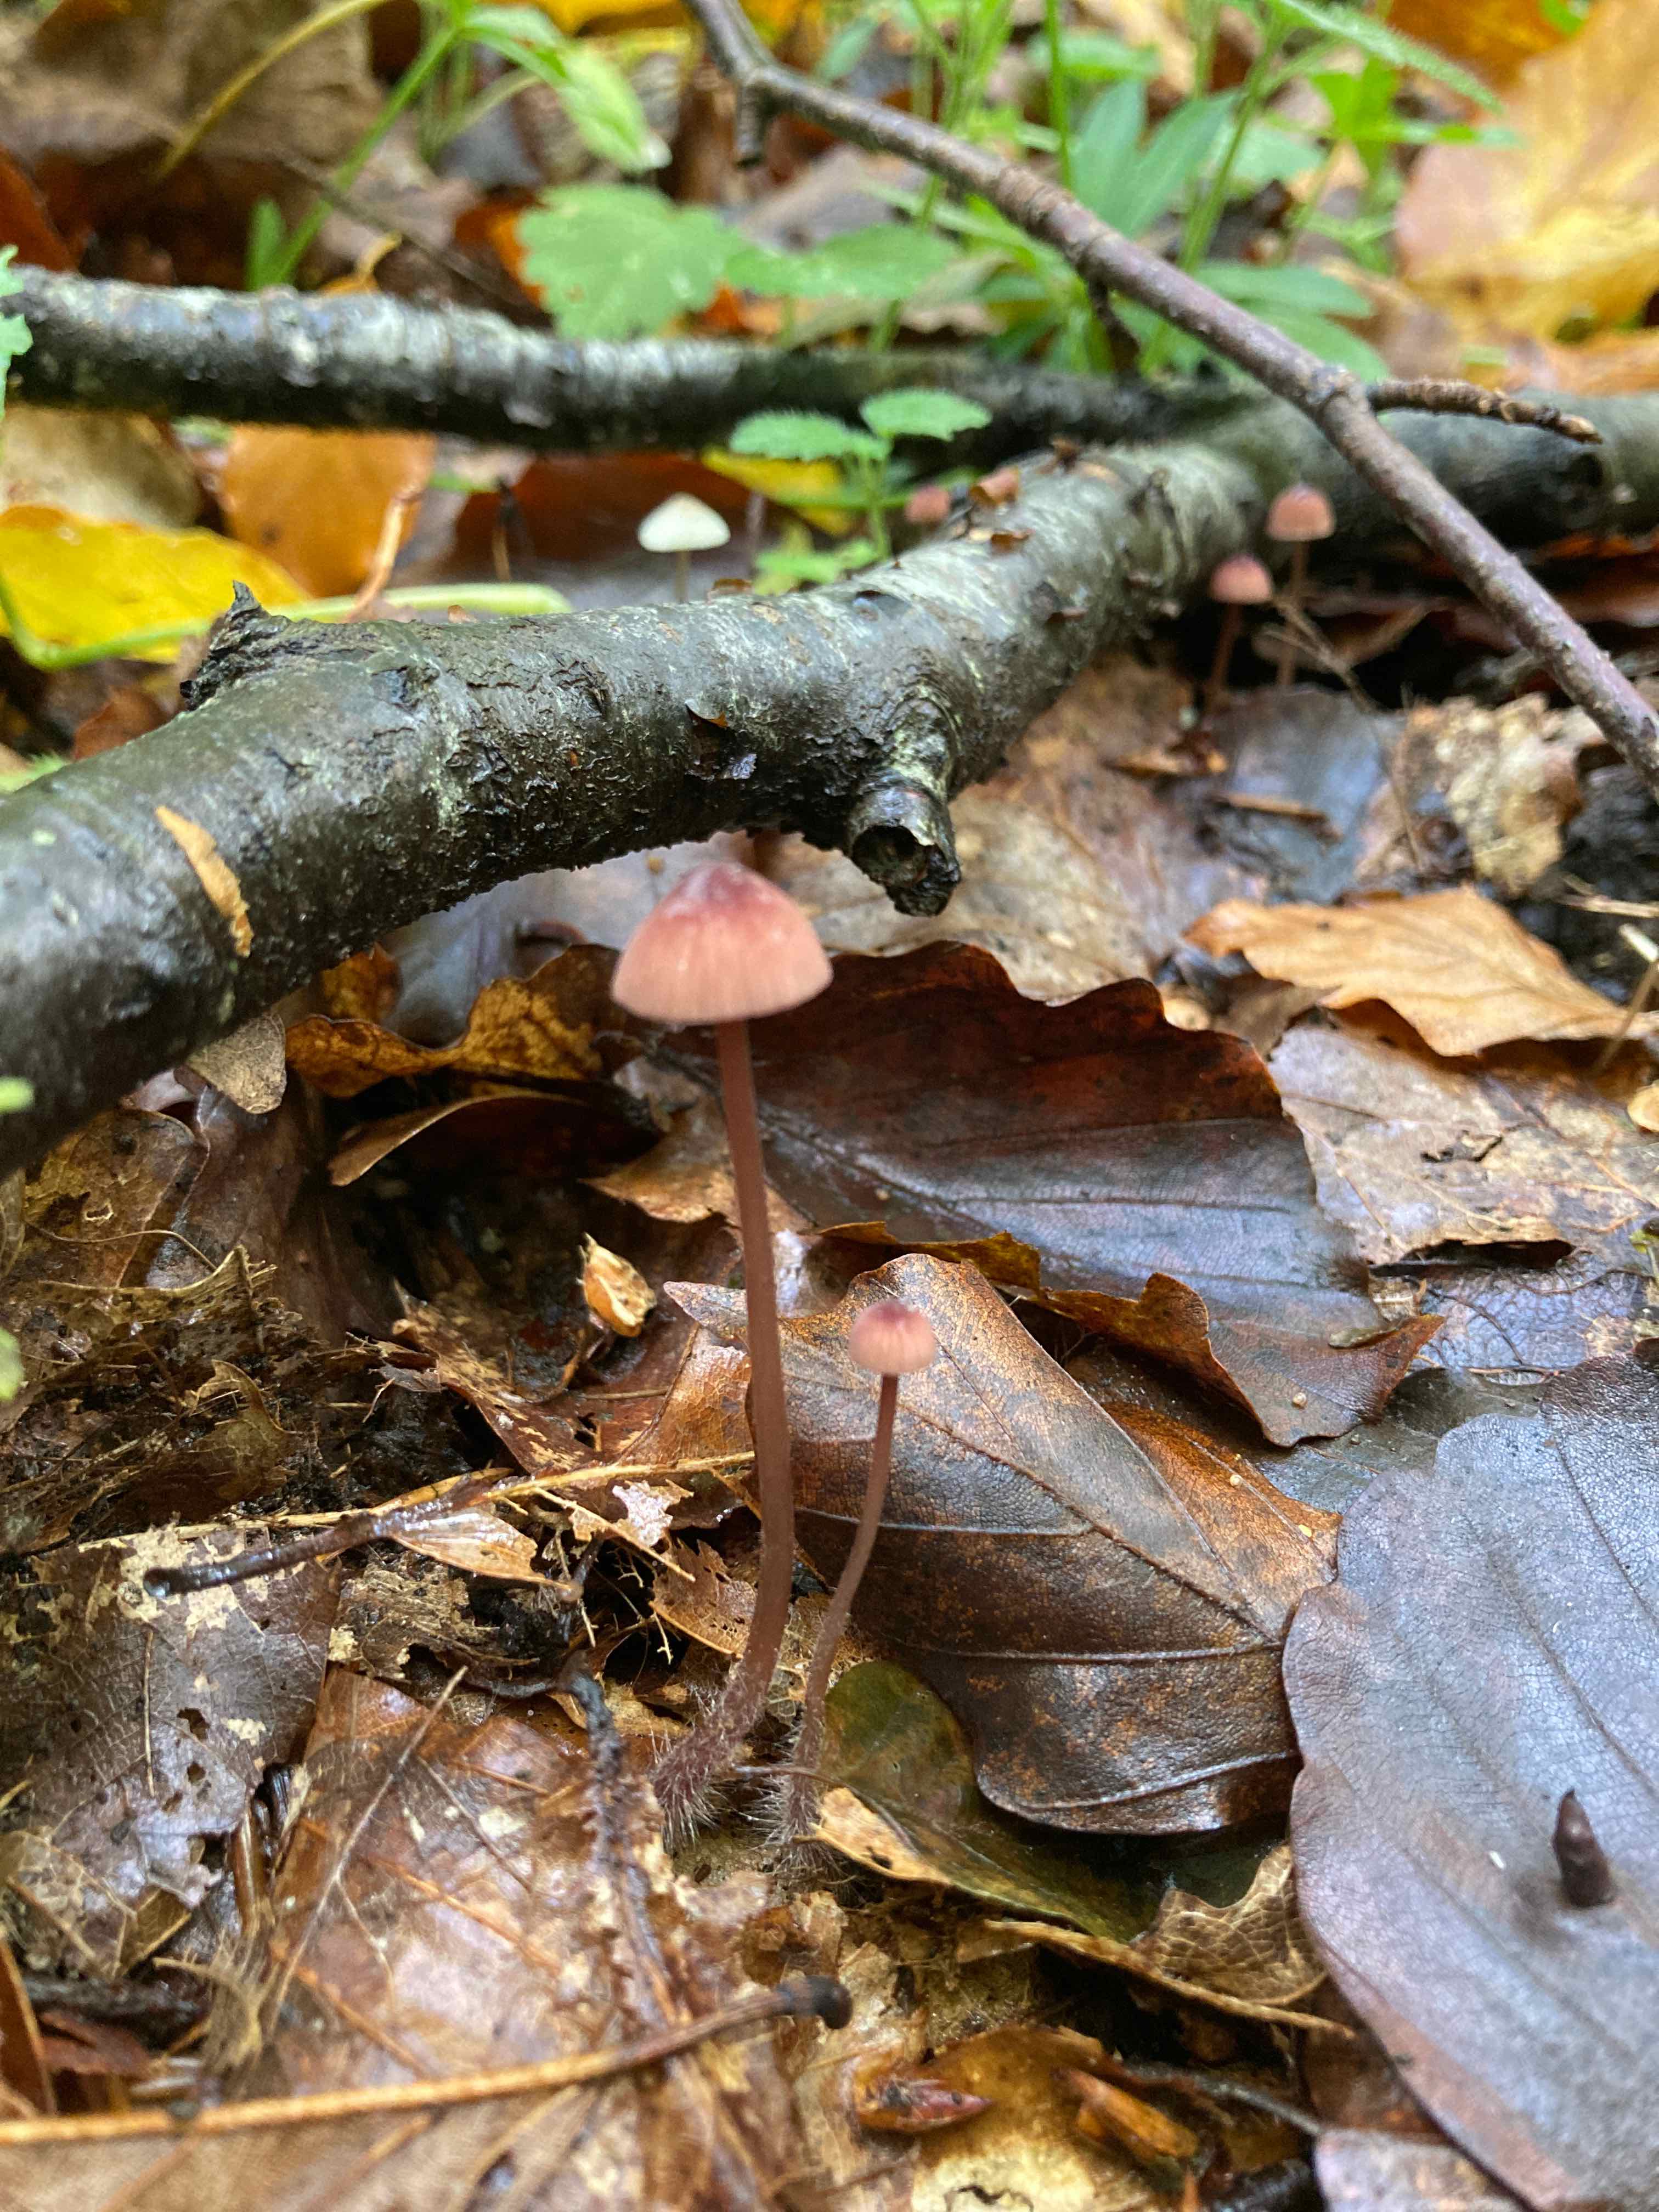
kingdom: Fungi
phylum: Basidiomycota
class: Agaricomycetes
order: Agaricales
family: Mycenaceae
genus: Mycena
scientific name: Mycena sanguinolenta
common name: rødmælket huesvamp
